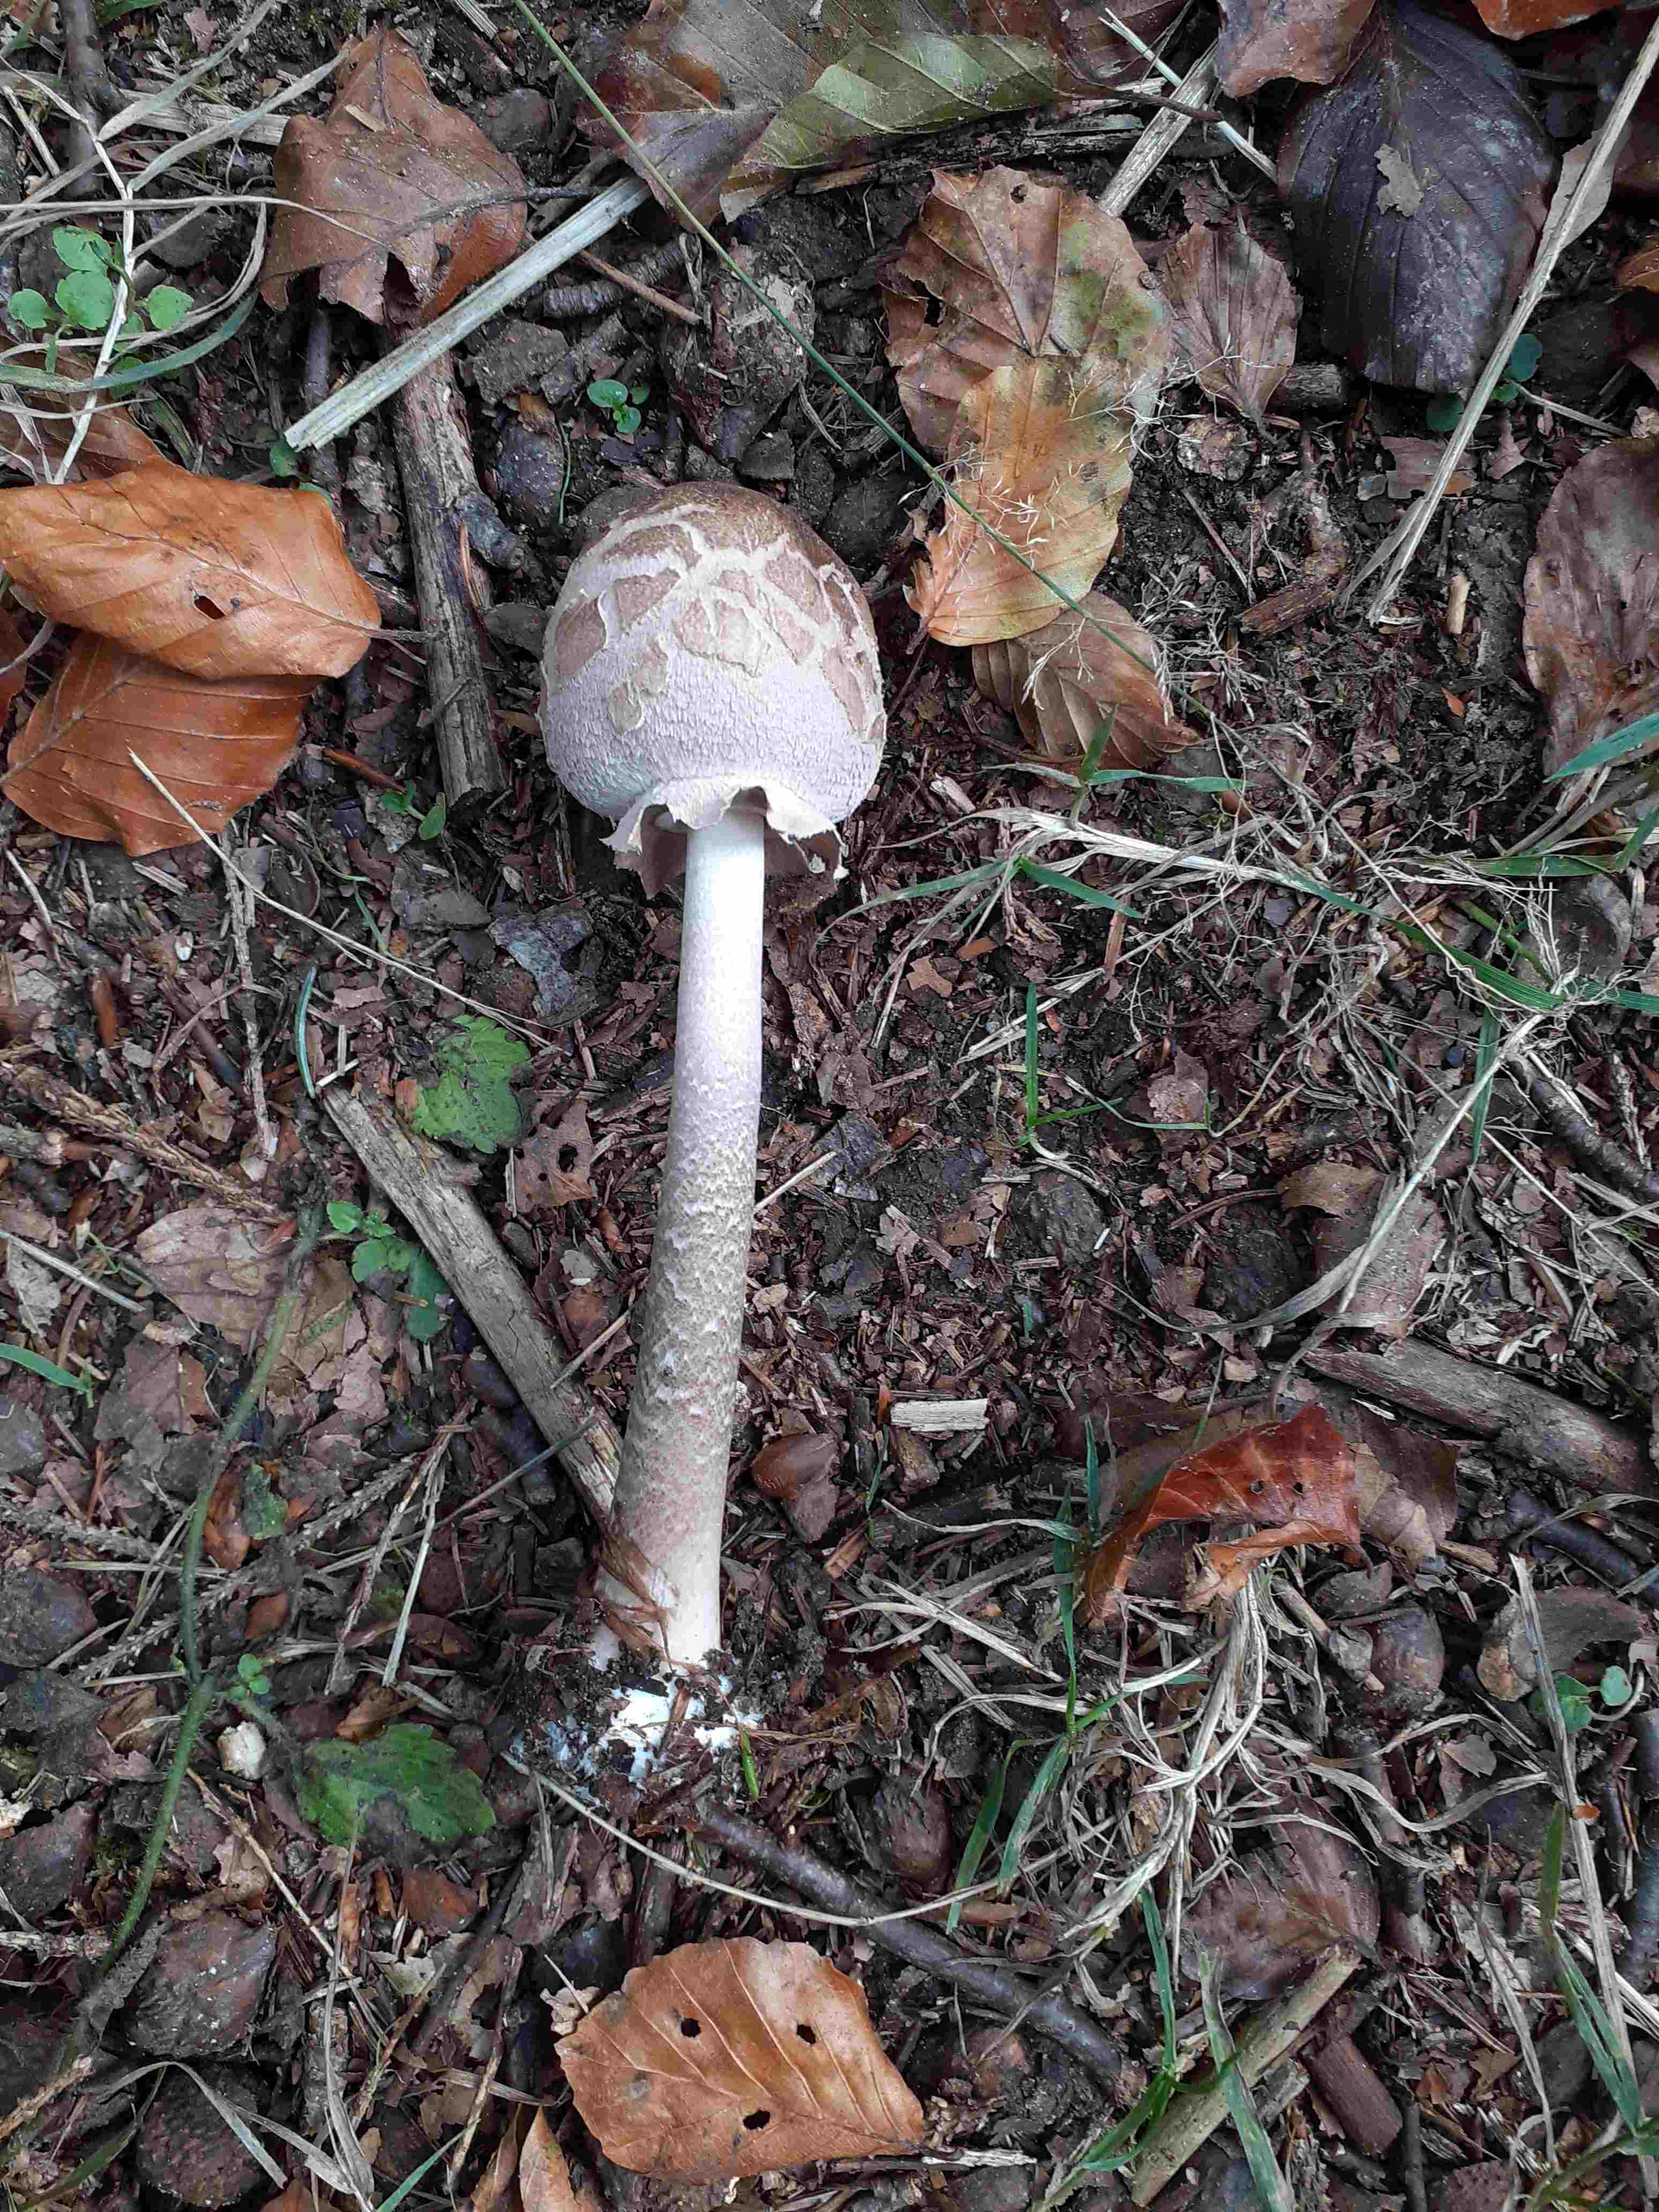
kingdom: Fungi
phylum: Basidiomycota
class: Agaricomycetes
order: Agaricales
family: Agaricaceae
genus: Macrolepiota
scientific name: Macrolepiota procera
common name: stor kæmpeparasolhat
